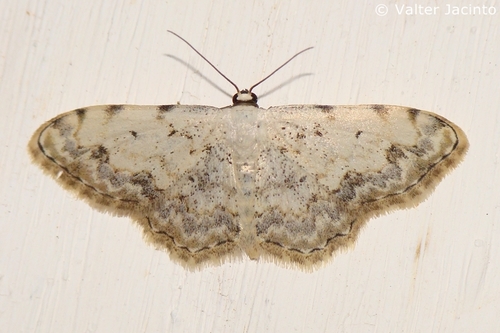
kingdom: Animalia
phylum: Arthropoda
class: Insecta
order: Lepidoptera
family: Geometridae
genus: Scopula
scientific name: Scopula submutata
